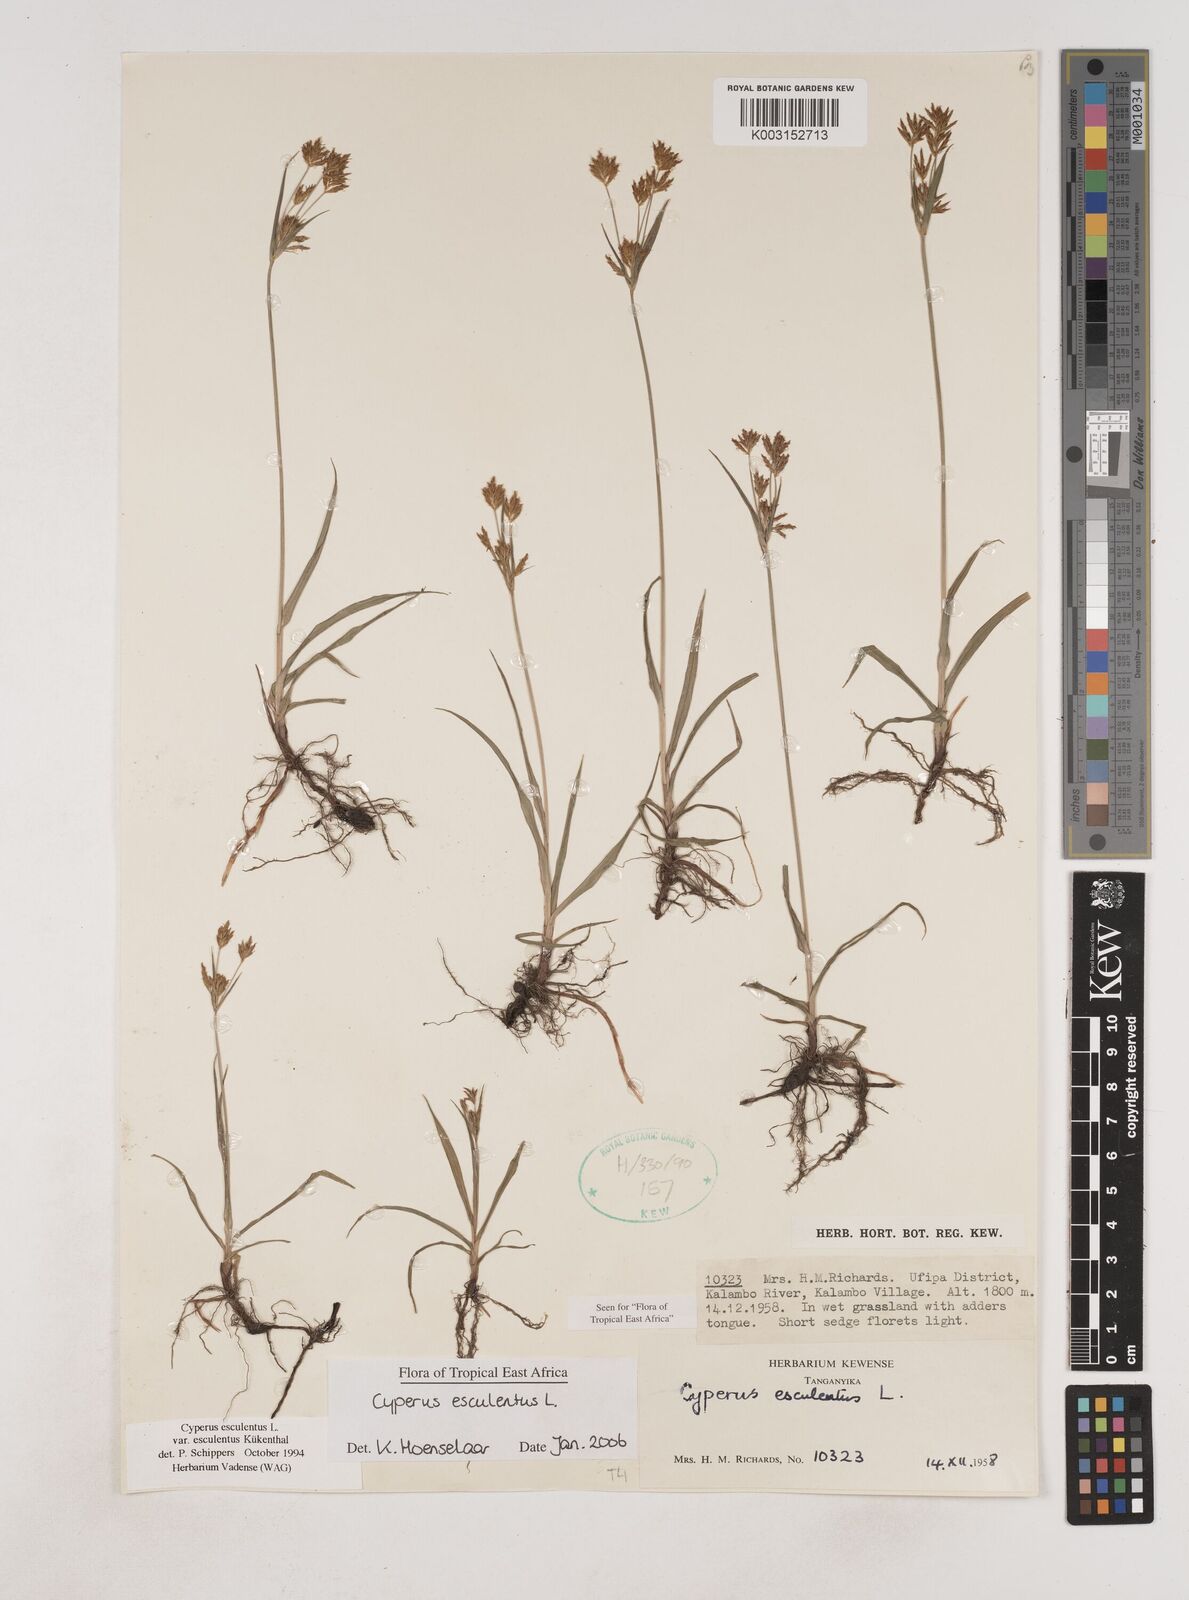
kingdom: Plantae
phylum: Tracheophyta
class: Liliopsida
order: Poales
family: Cyperaceae
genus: Cyperus
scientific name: Cyperus esculentus
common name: Yellow nutsedge
